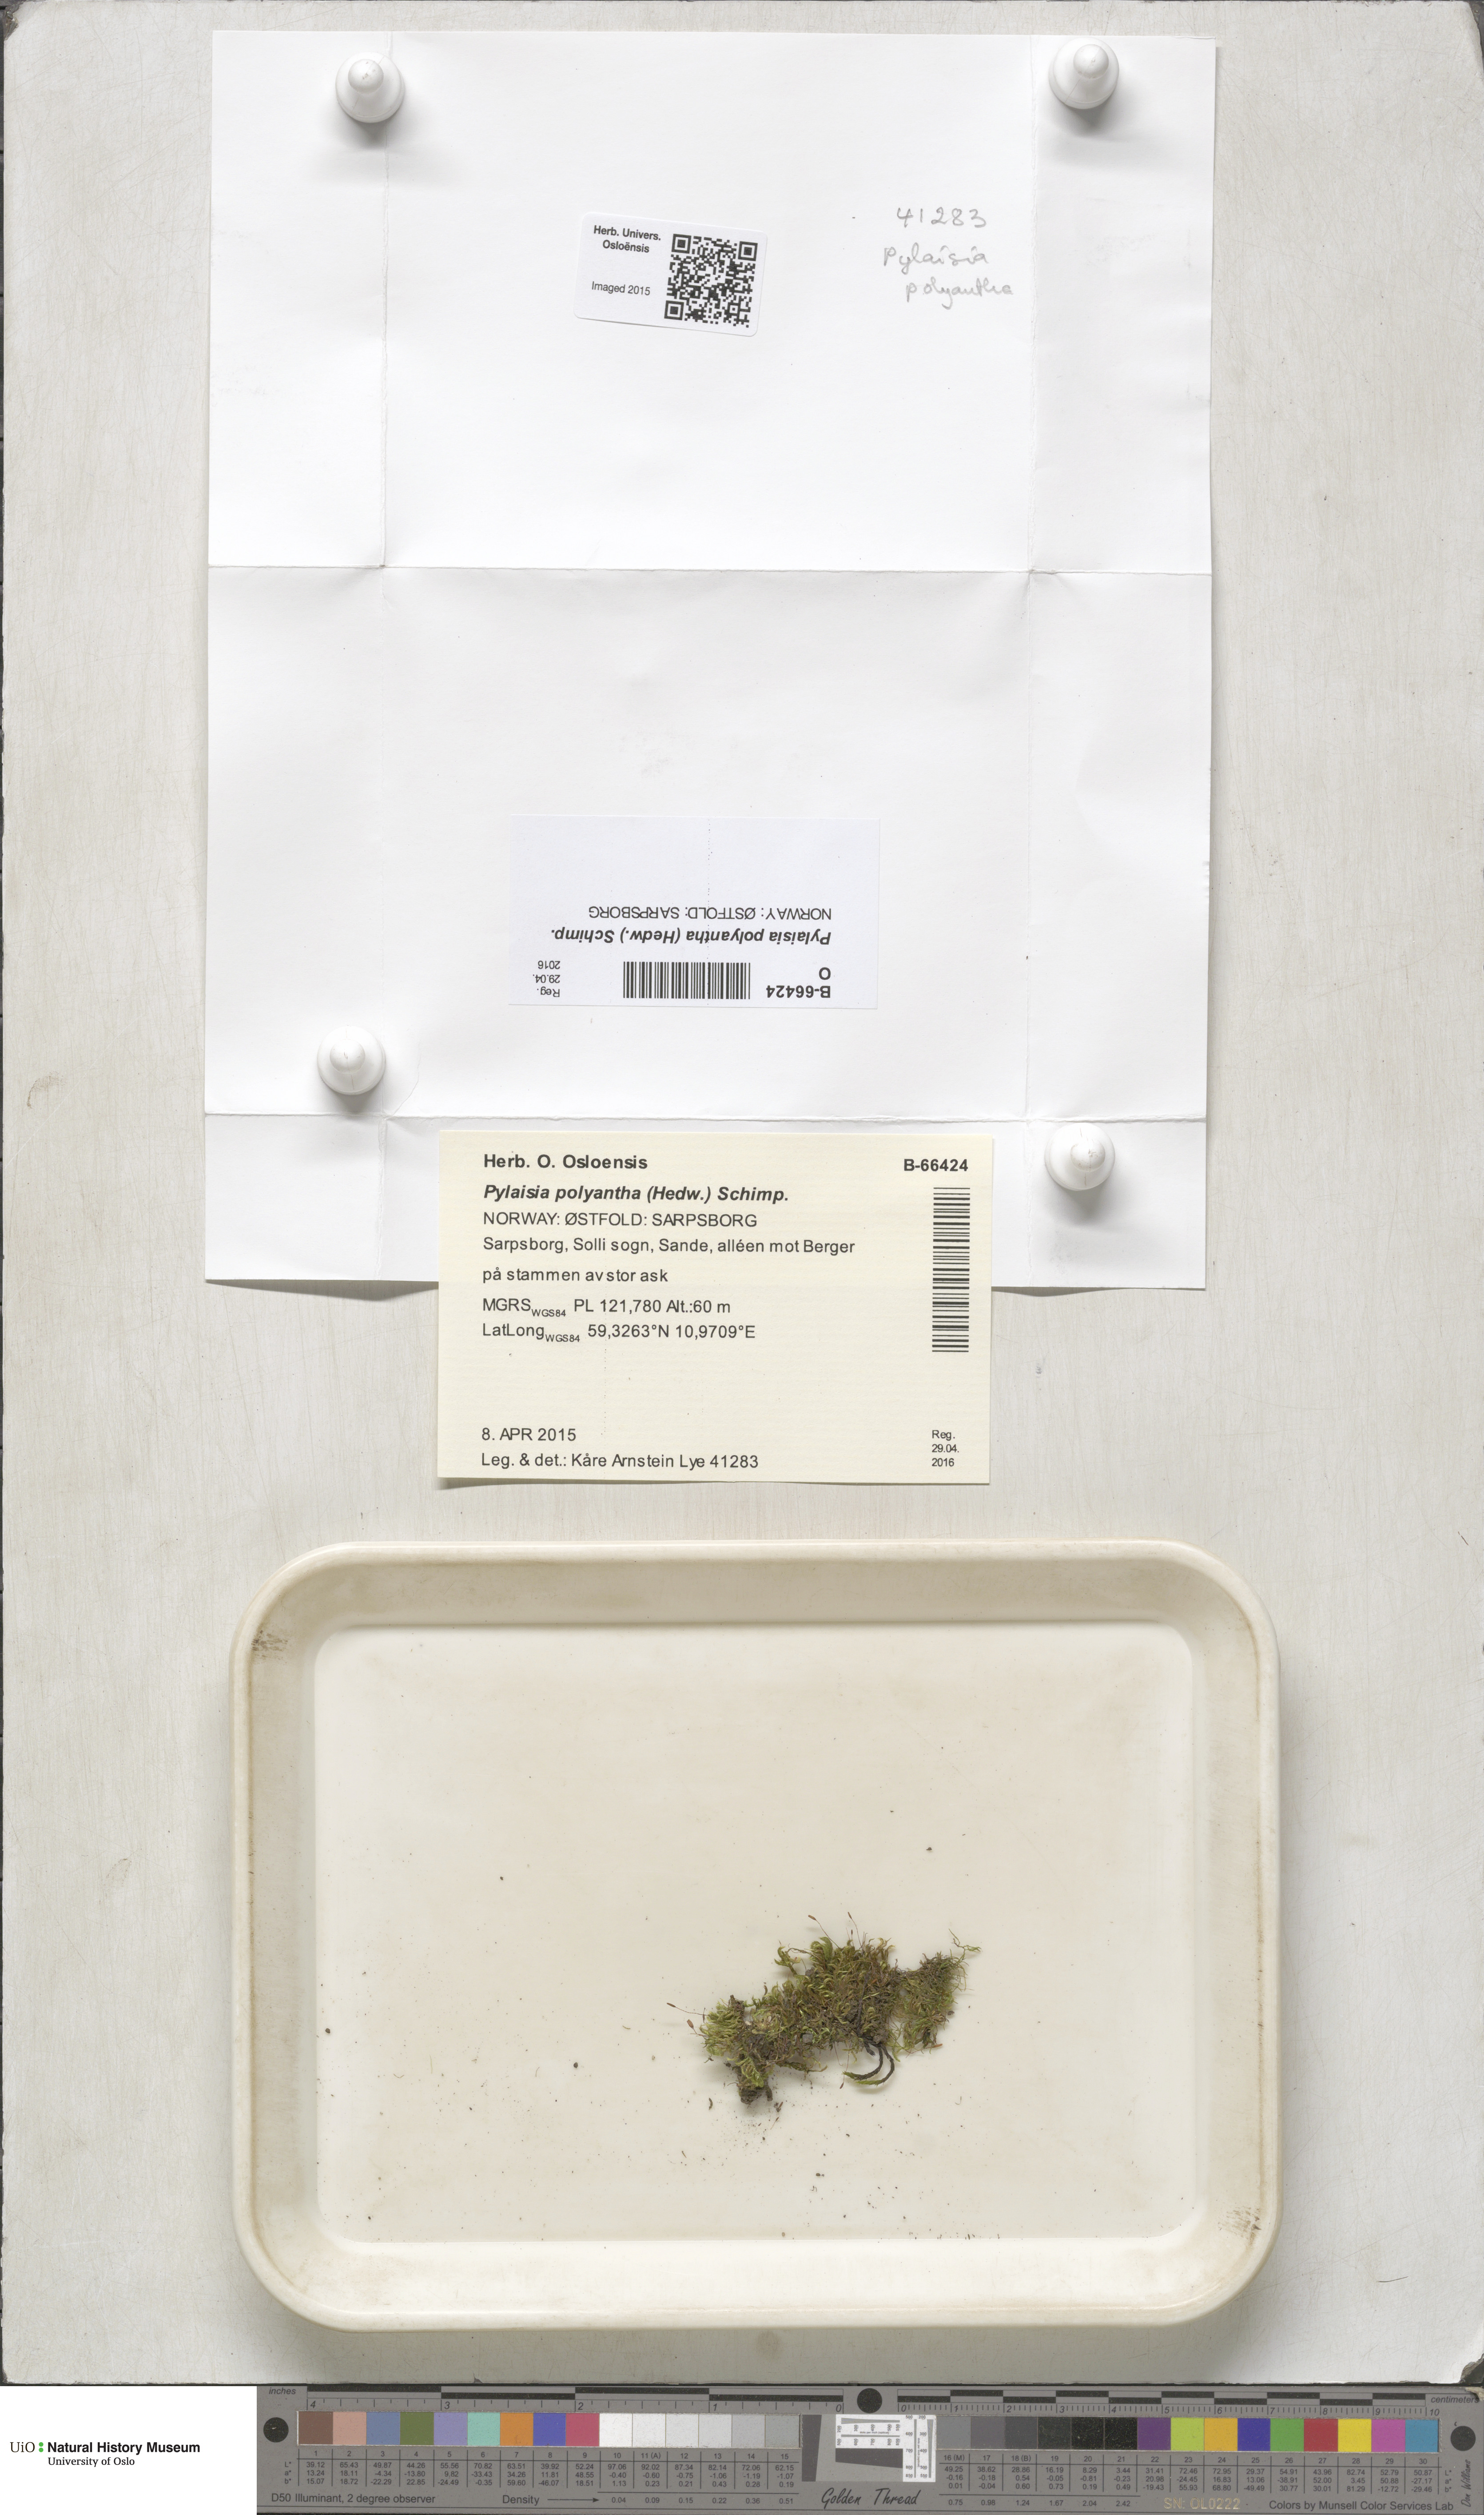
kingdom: Plantae
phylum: Bryophyta
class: Bryopsida
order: Hypnales
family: Pylaisiaceae
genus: Pylaisia
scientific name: Pylaisia polyantha
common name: Many-flowered leskea
